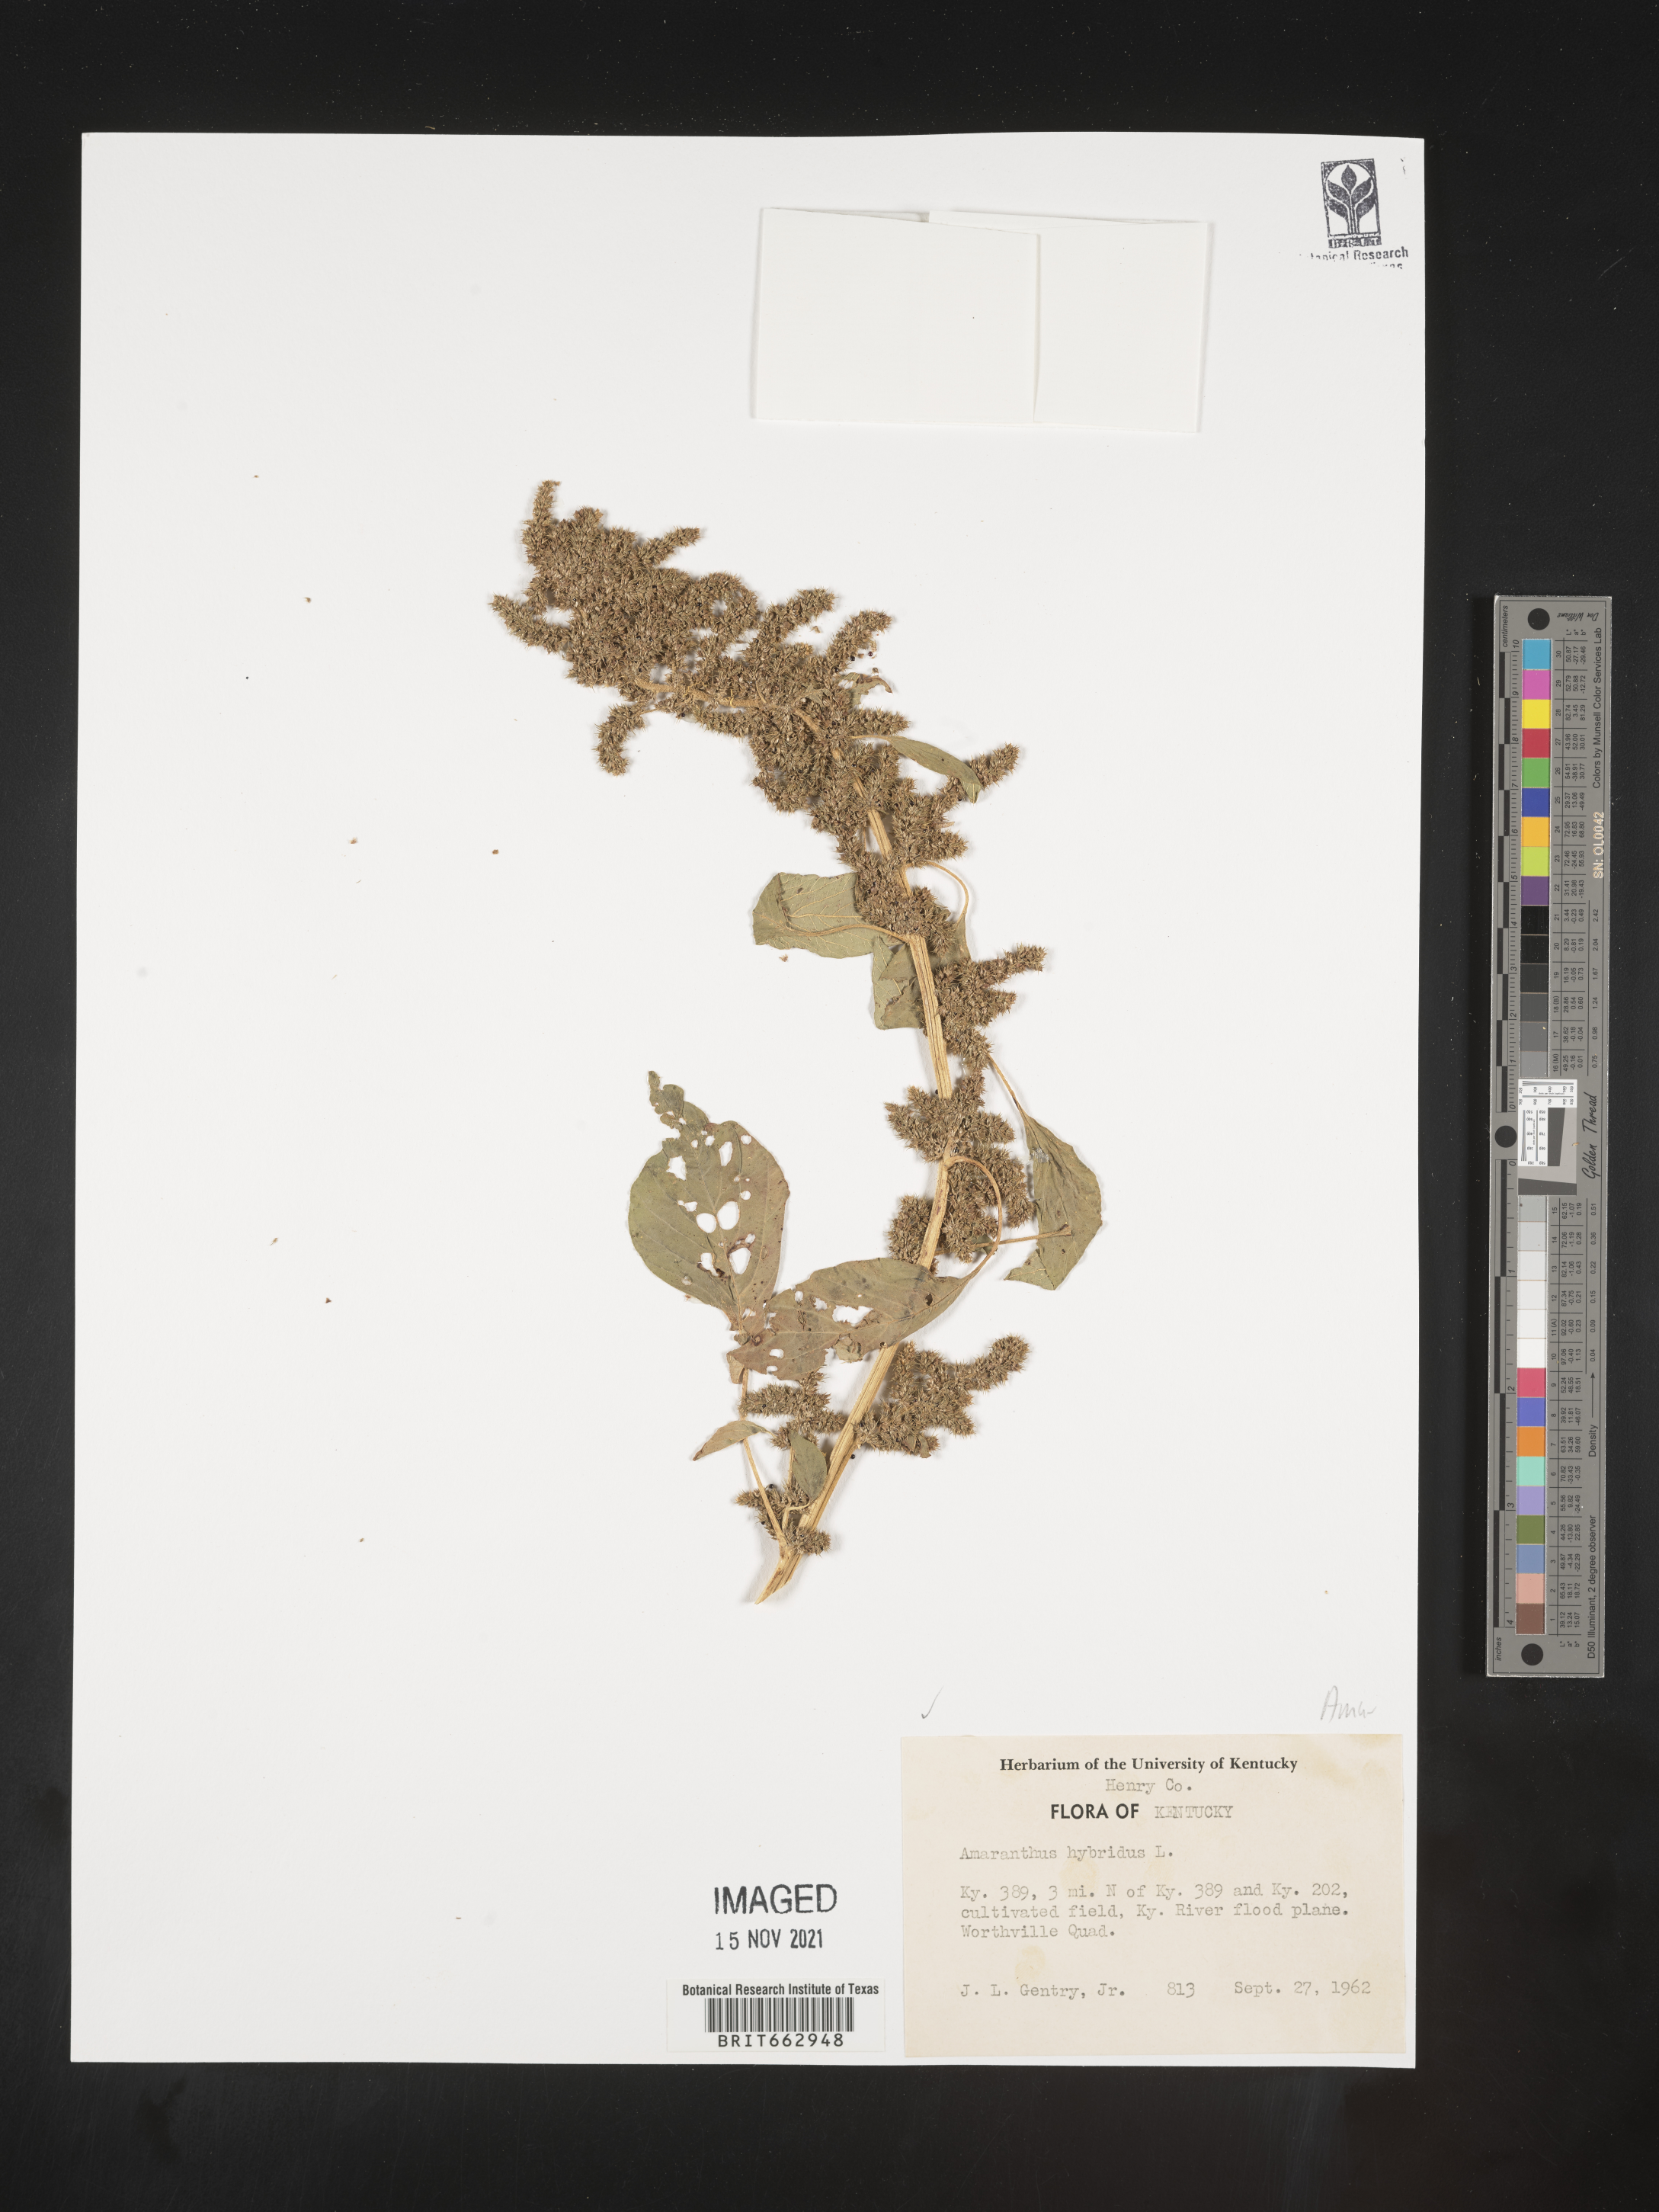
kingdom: Plantae
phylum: Tracheophyta
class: Magnoliopsida
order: Caryophyllales
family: Amaranthaceae
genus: Amaranthus
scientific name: Amaranthus hybridus
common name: Green amaranth
